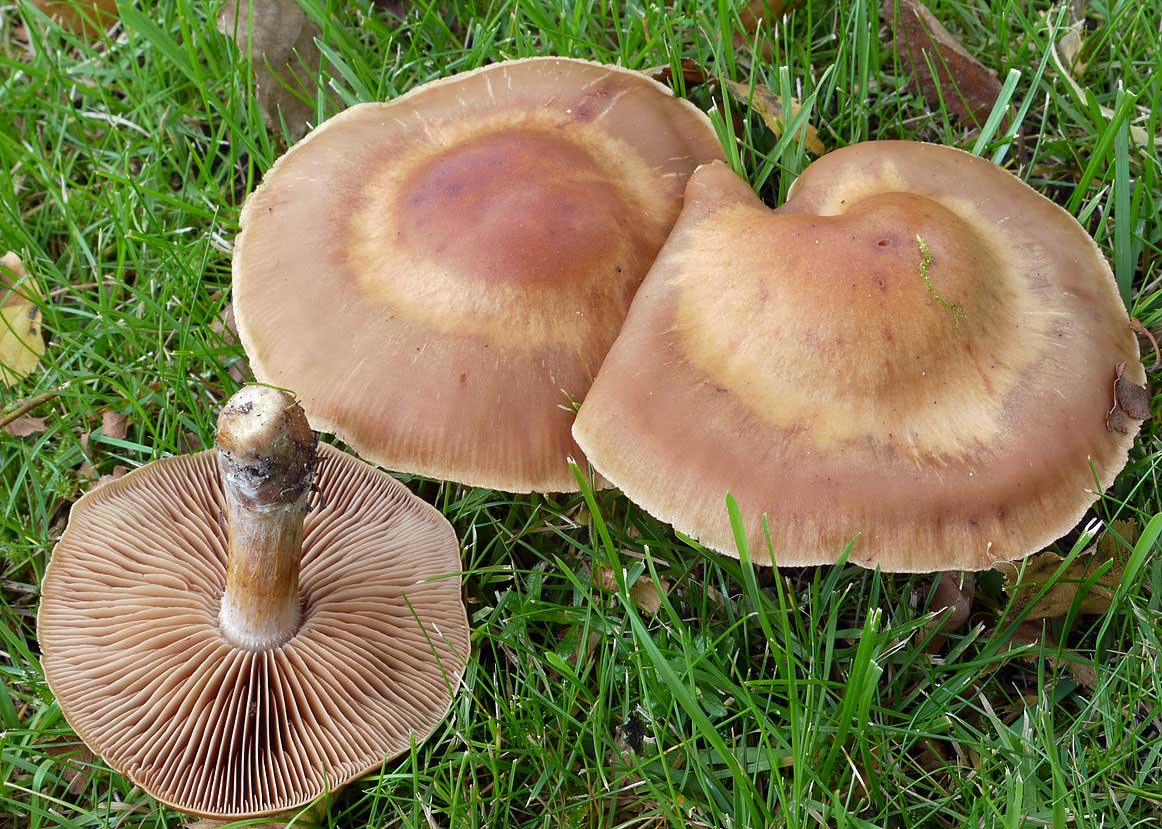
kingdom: Fungi
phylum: Basidiomycota
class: Agaricomycetes
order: Agaricales
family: Cortinariaceae
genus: Cortinarius
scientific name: Cortinarius subbalaustinus
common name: birke-slørhat
